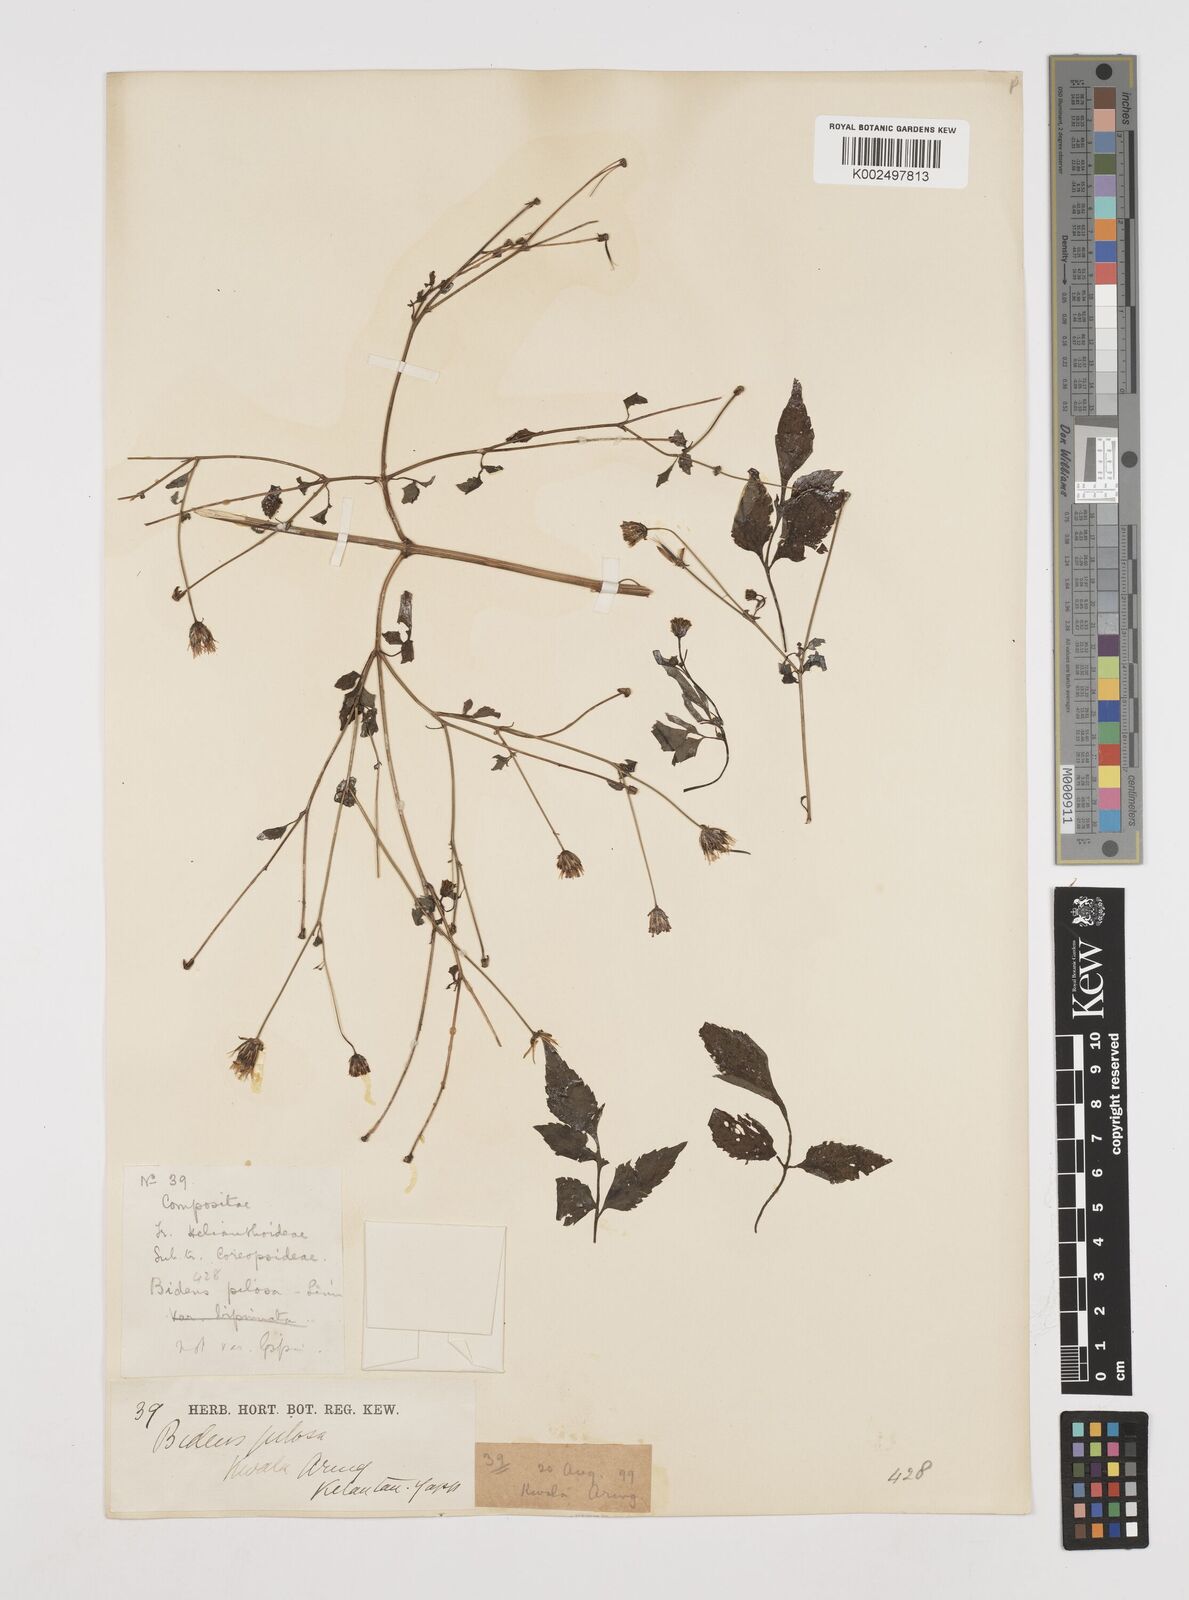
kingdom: Plantae
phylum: Tracheophyta
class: Magnoliopsida
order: Asterales
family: Asteraceae
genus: Bidens
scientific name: Bidens pilosa
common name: Black-jack
